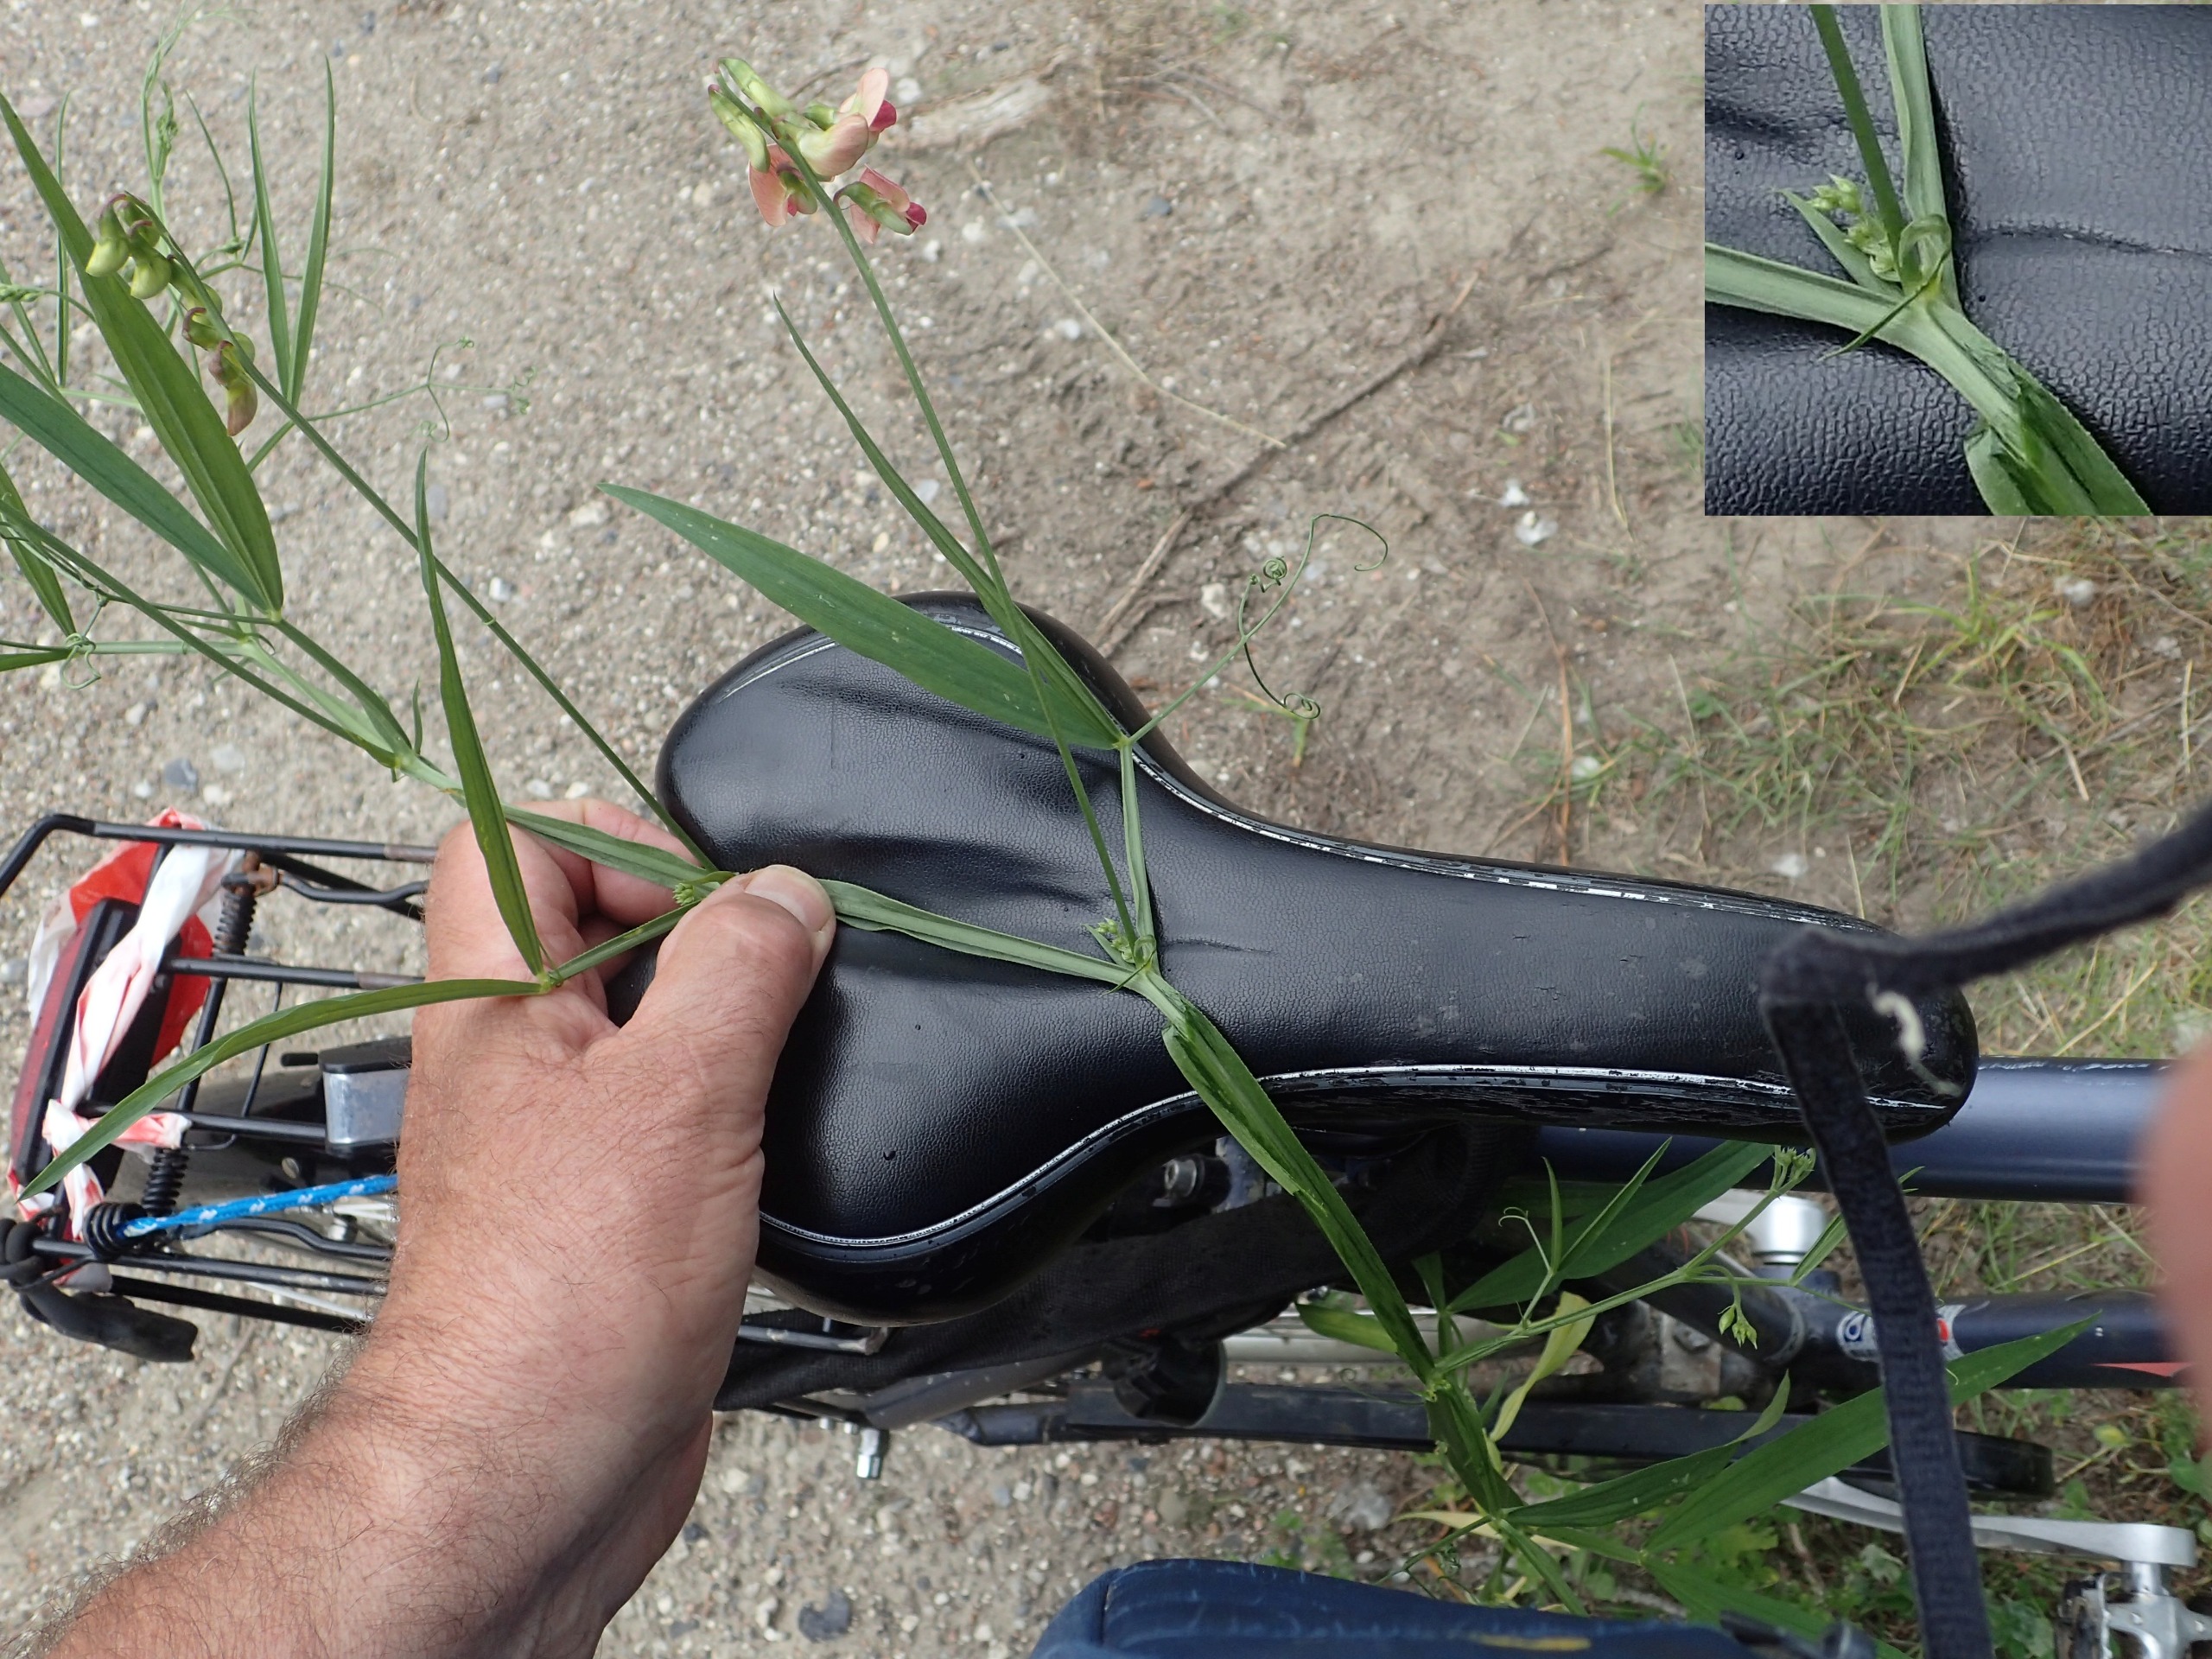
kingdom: Plantae
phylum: Tracheophyta
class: Magnoliopsida
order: Fabales
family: Fabaceae
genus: Lathyrus
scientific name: Lathyrus sylvestris
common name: Skov-fladbælg
